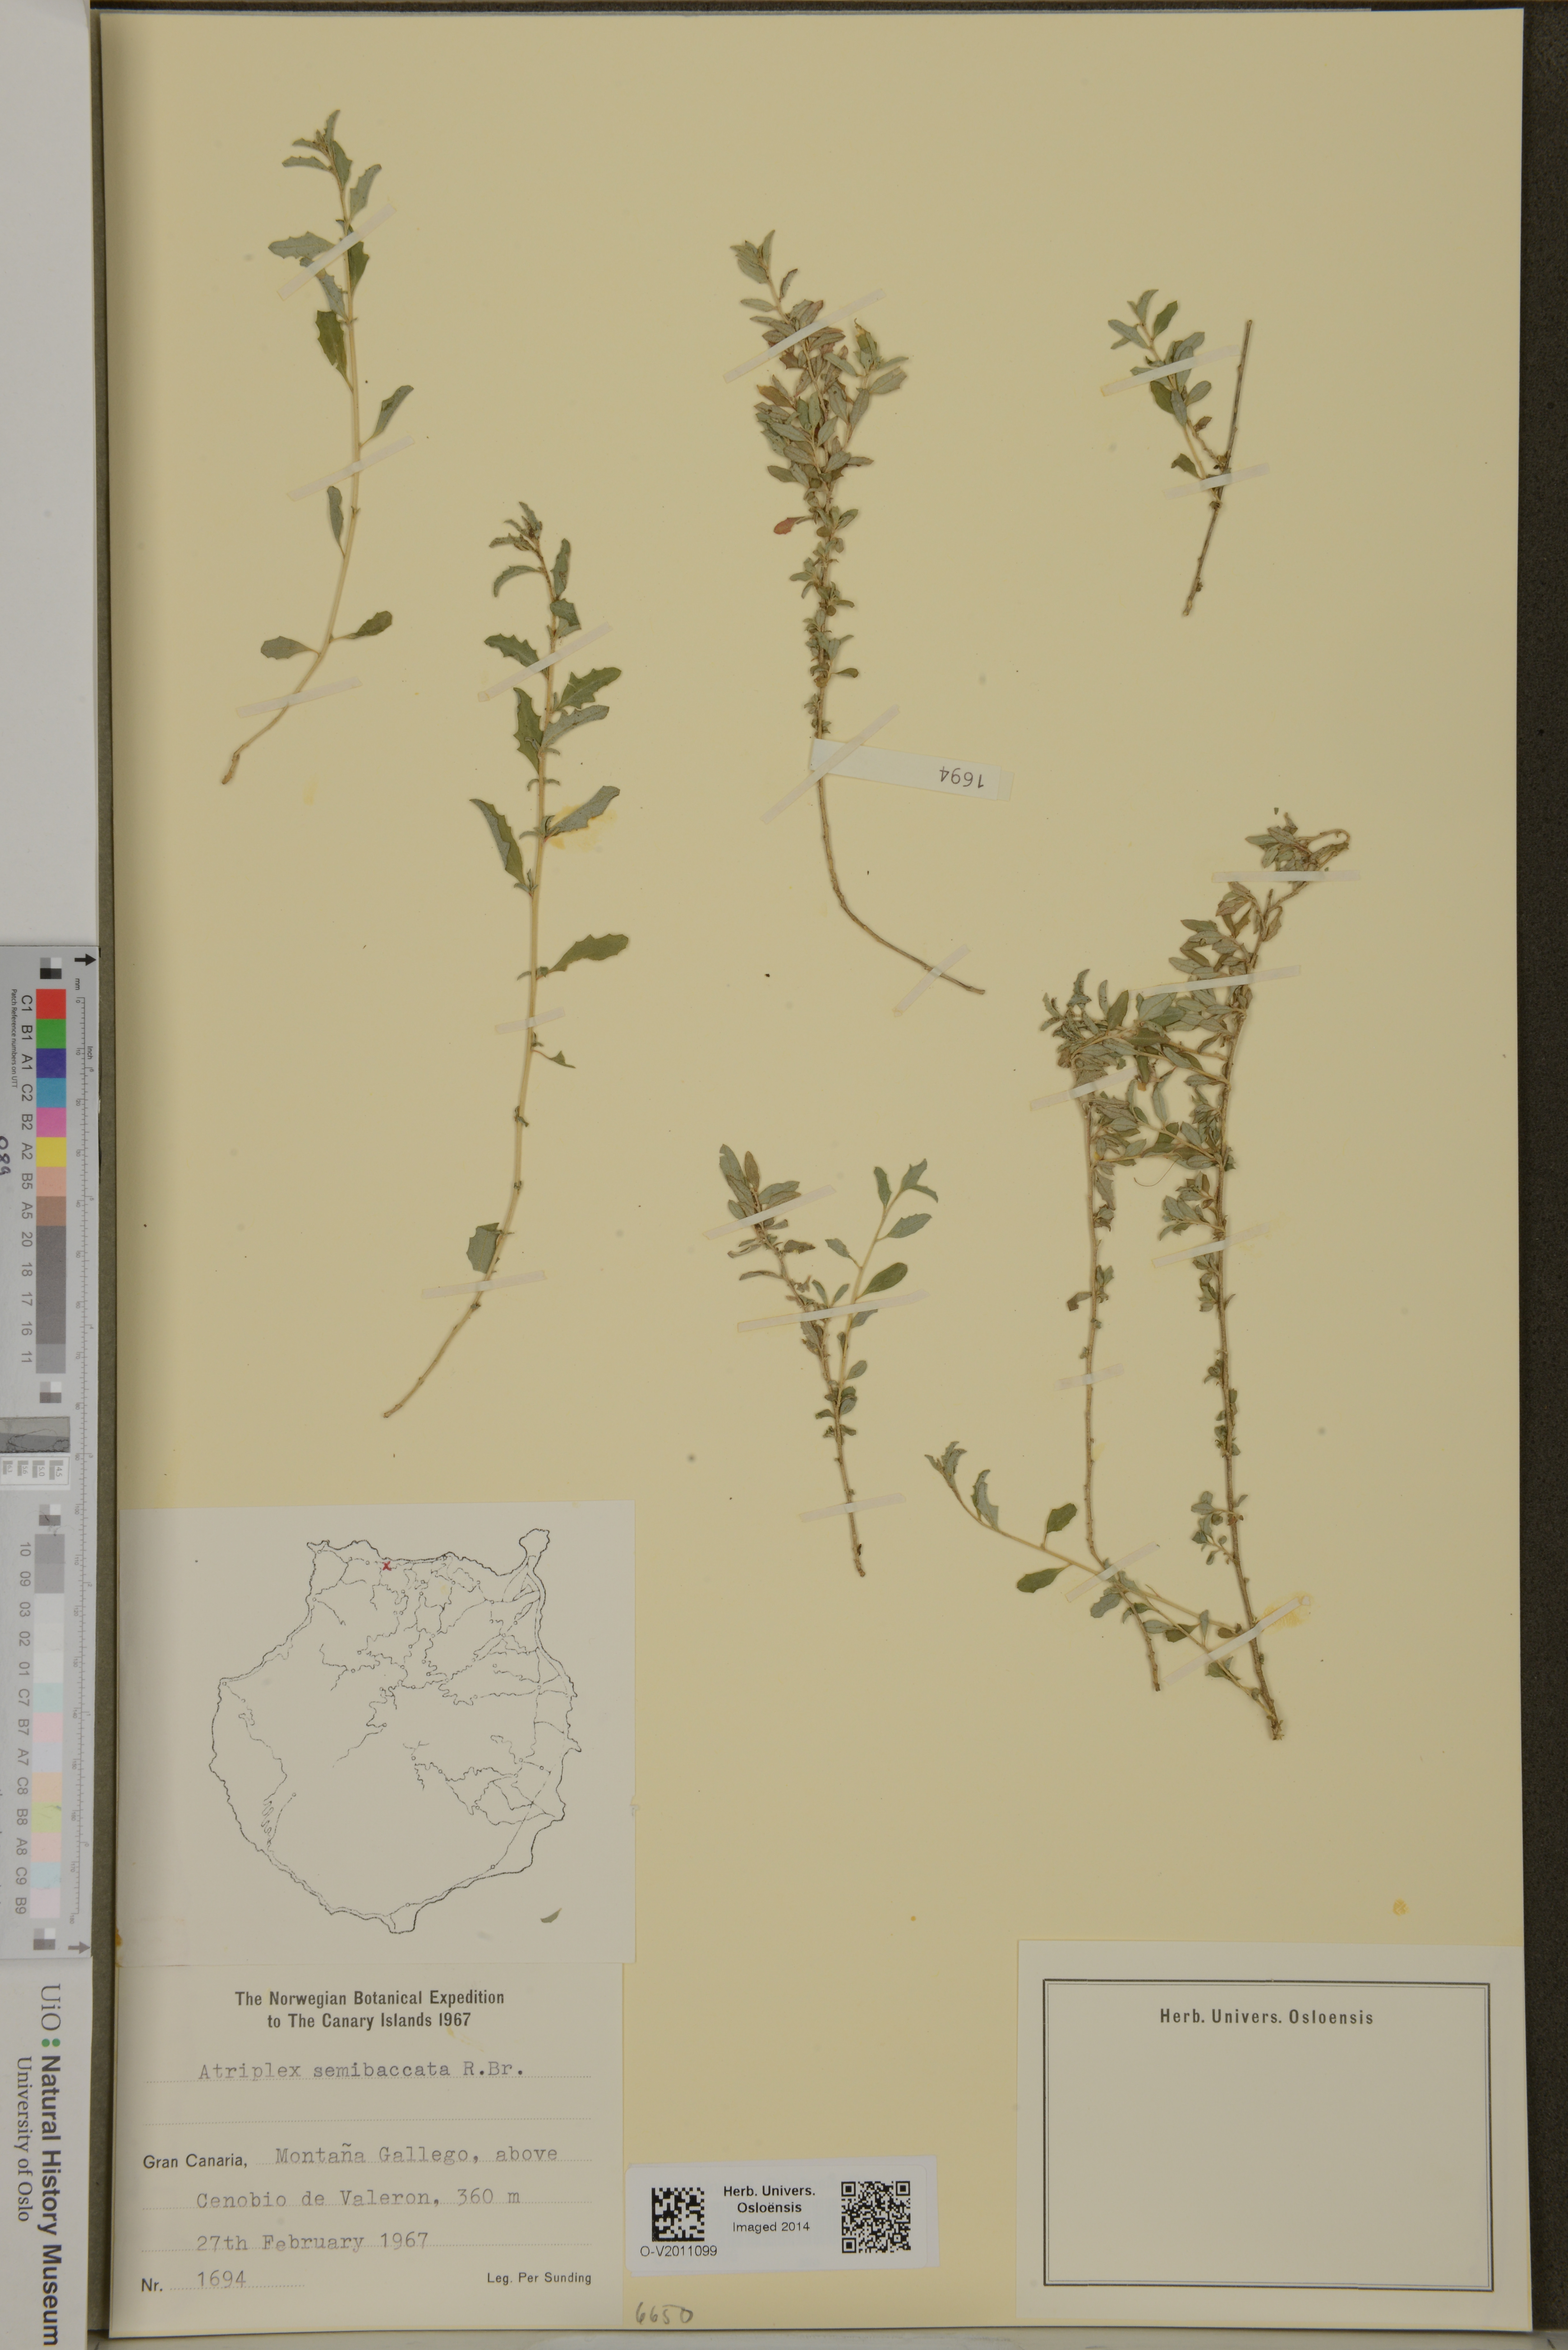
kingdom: Plantae
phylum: Tracheophyta
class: Magnoliopsida
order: Caryophyllales
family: Amaranthaceae
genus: Atriplex
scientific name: Atriplex semibaccata
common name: Australian saltbush
